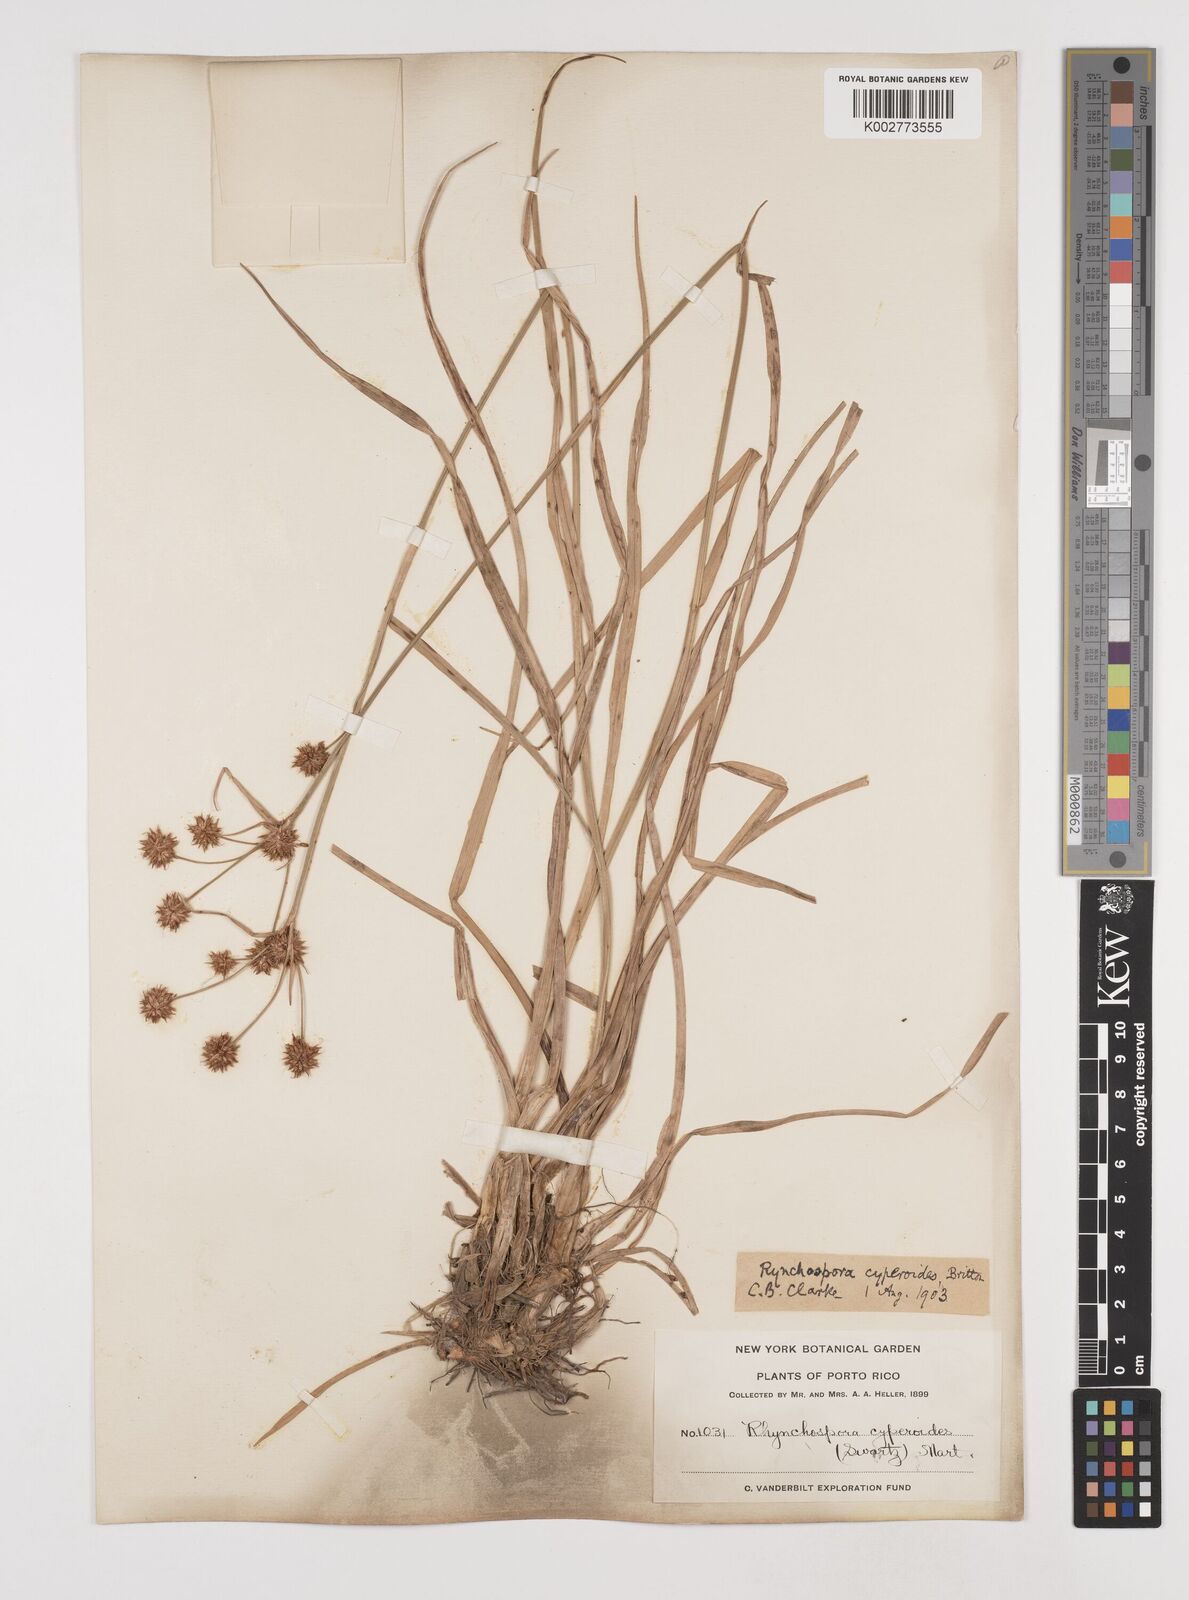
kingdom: Plantae
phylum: Tracheophyta
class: Liliopsida
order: Poales
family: Cyperaceae
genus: Rhynchospora
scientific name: Rhynchospora holoschoenoides
